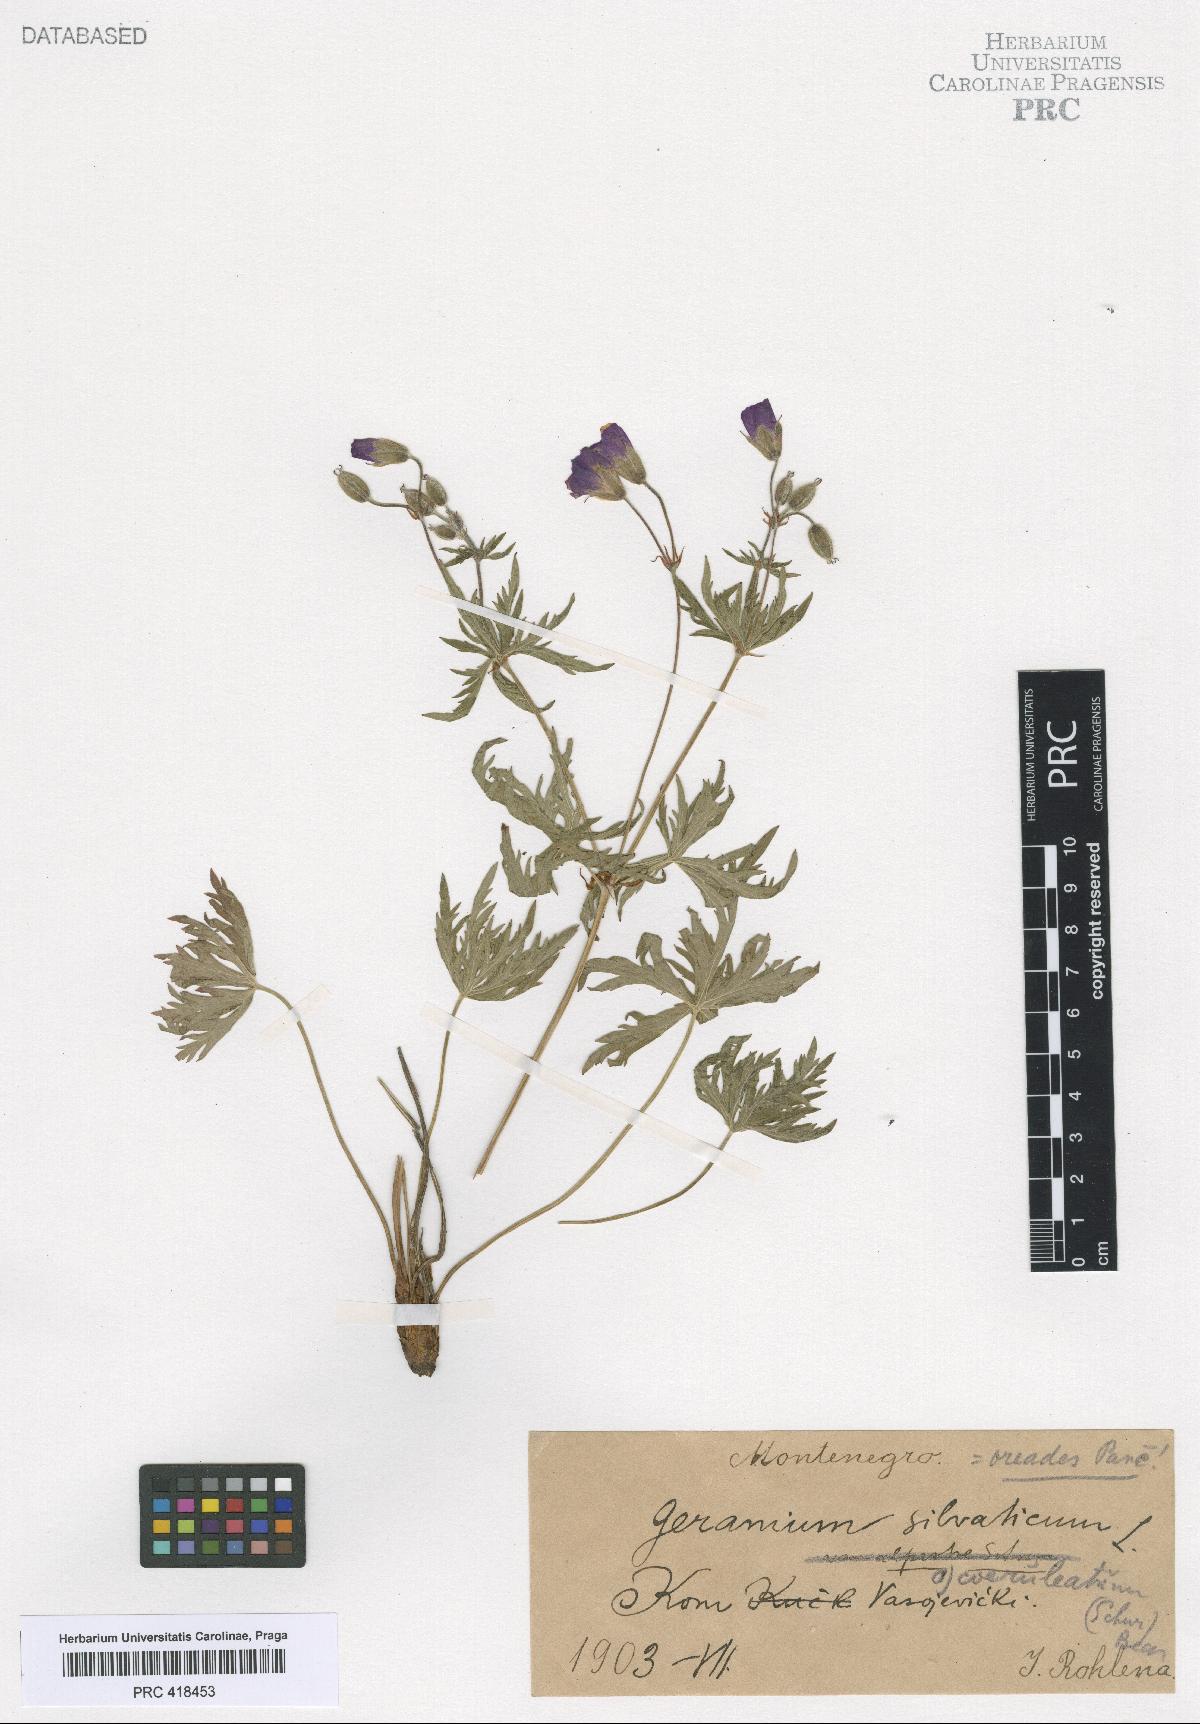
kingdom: Plantae
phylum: Tracheophyta
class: Magnoliopsida
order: Geraniales
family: Geraniaceae
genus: Geranium
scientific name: Geranium caeruleatum
